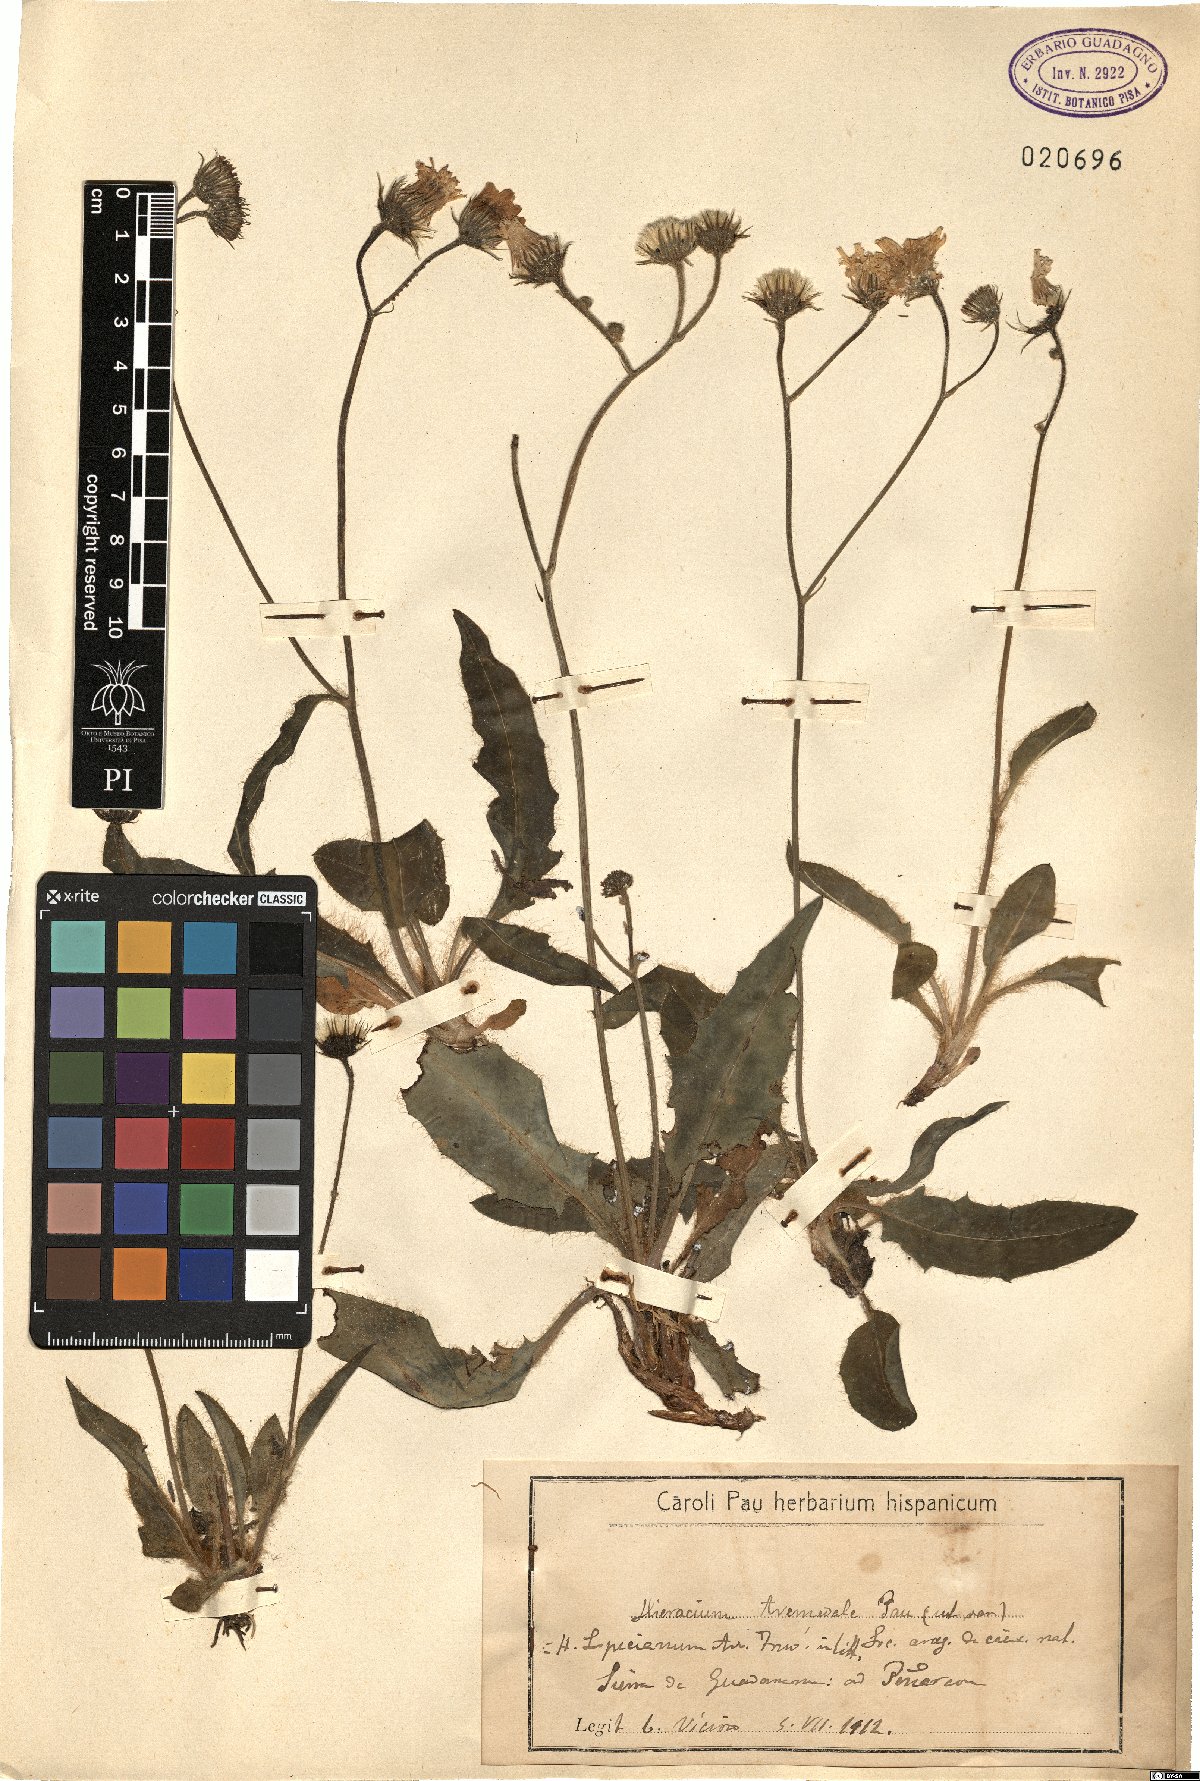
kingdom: Plantae
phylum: Tracheophyta
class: Magnoliopsida
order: Asterales
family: Asteraceae
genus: Hieracium
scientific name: Hieracium schmidtii
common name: Schmidt's hawkweed
